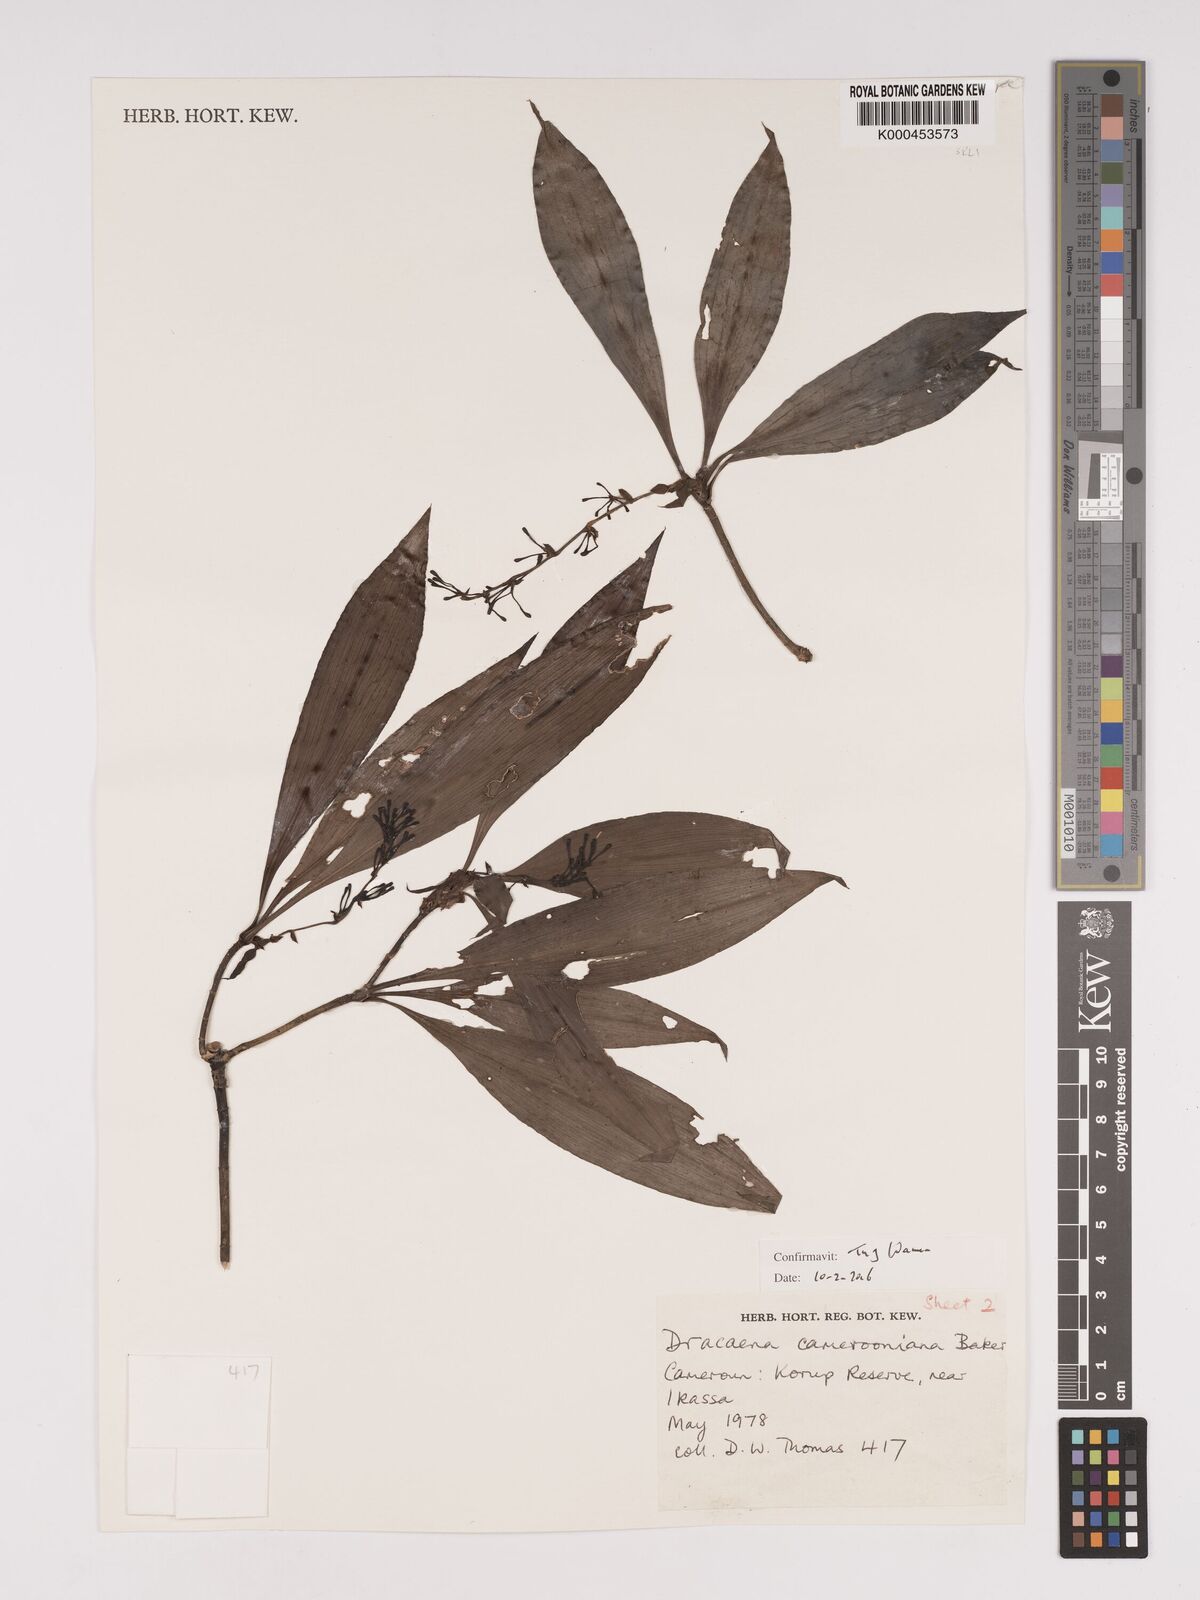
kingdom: Plantae
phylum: Tracheophyta
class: Liliopsida
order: Asparagales
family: Asparagaceae
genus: Dracaena
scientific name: Dracaena camerooniana
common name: Dragon tree
